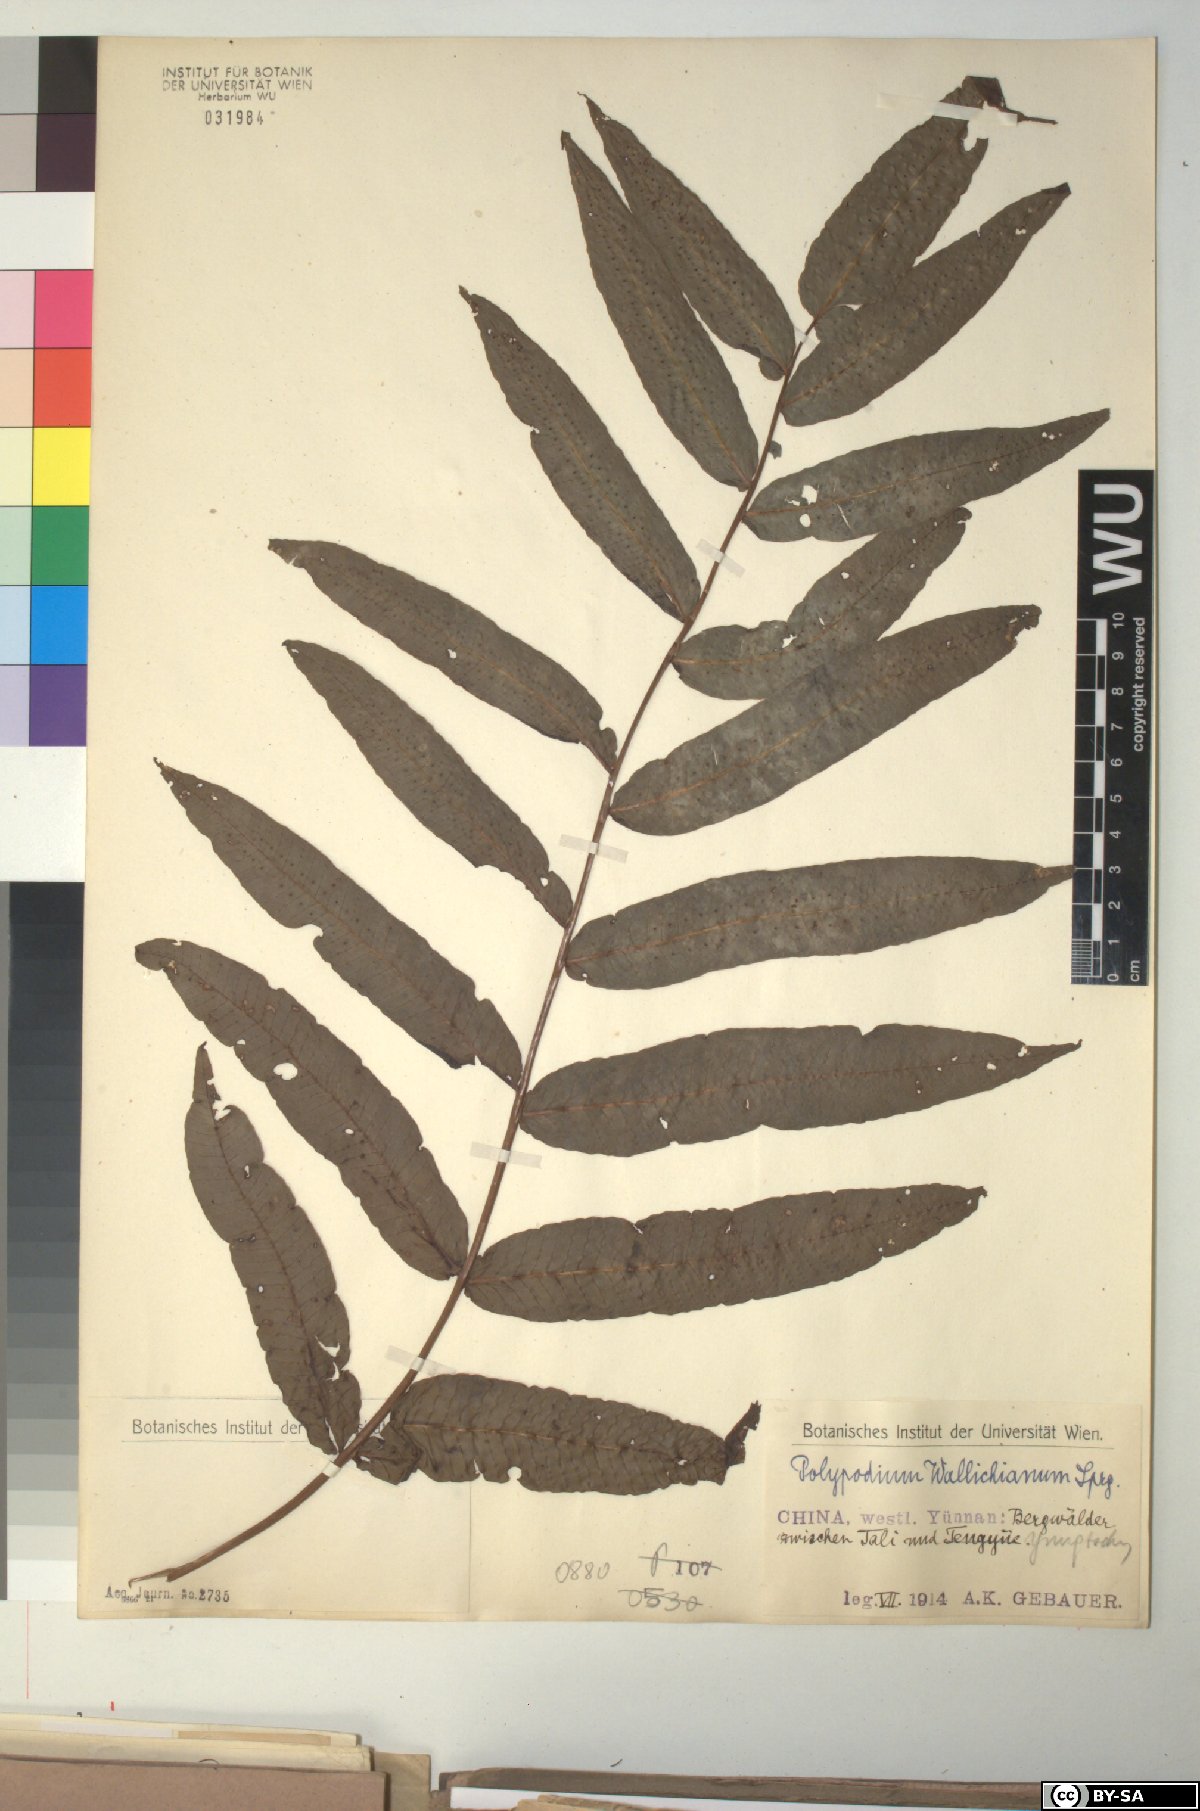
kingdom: Plantae
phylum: Tracheophyta
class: Polypodiopsida
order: Polypodiales
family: Polypodiaceae
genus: Selliguea
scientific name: Selliguea capitellata
